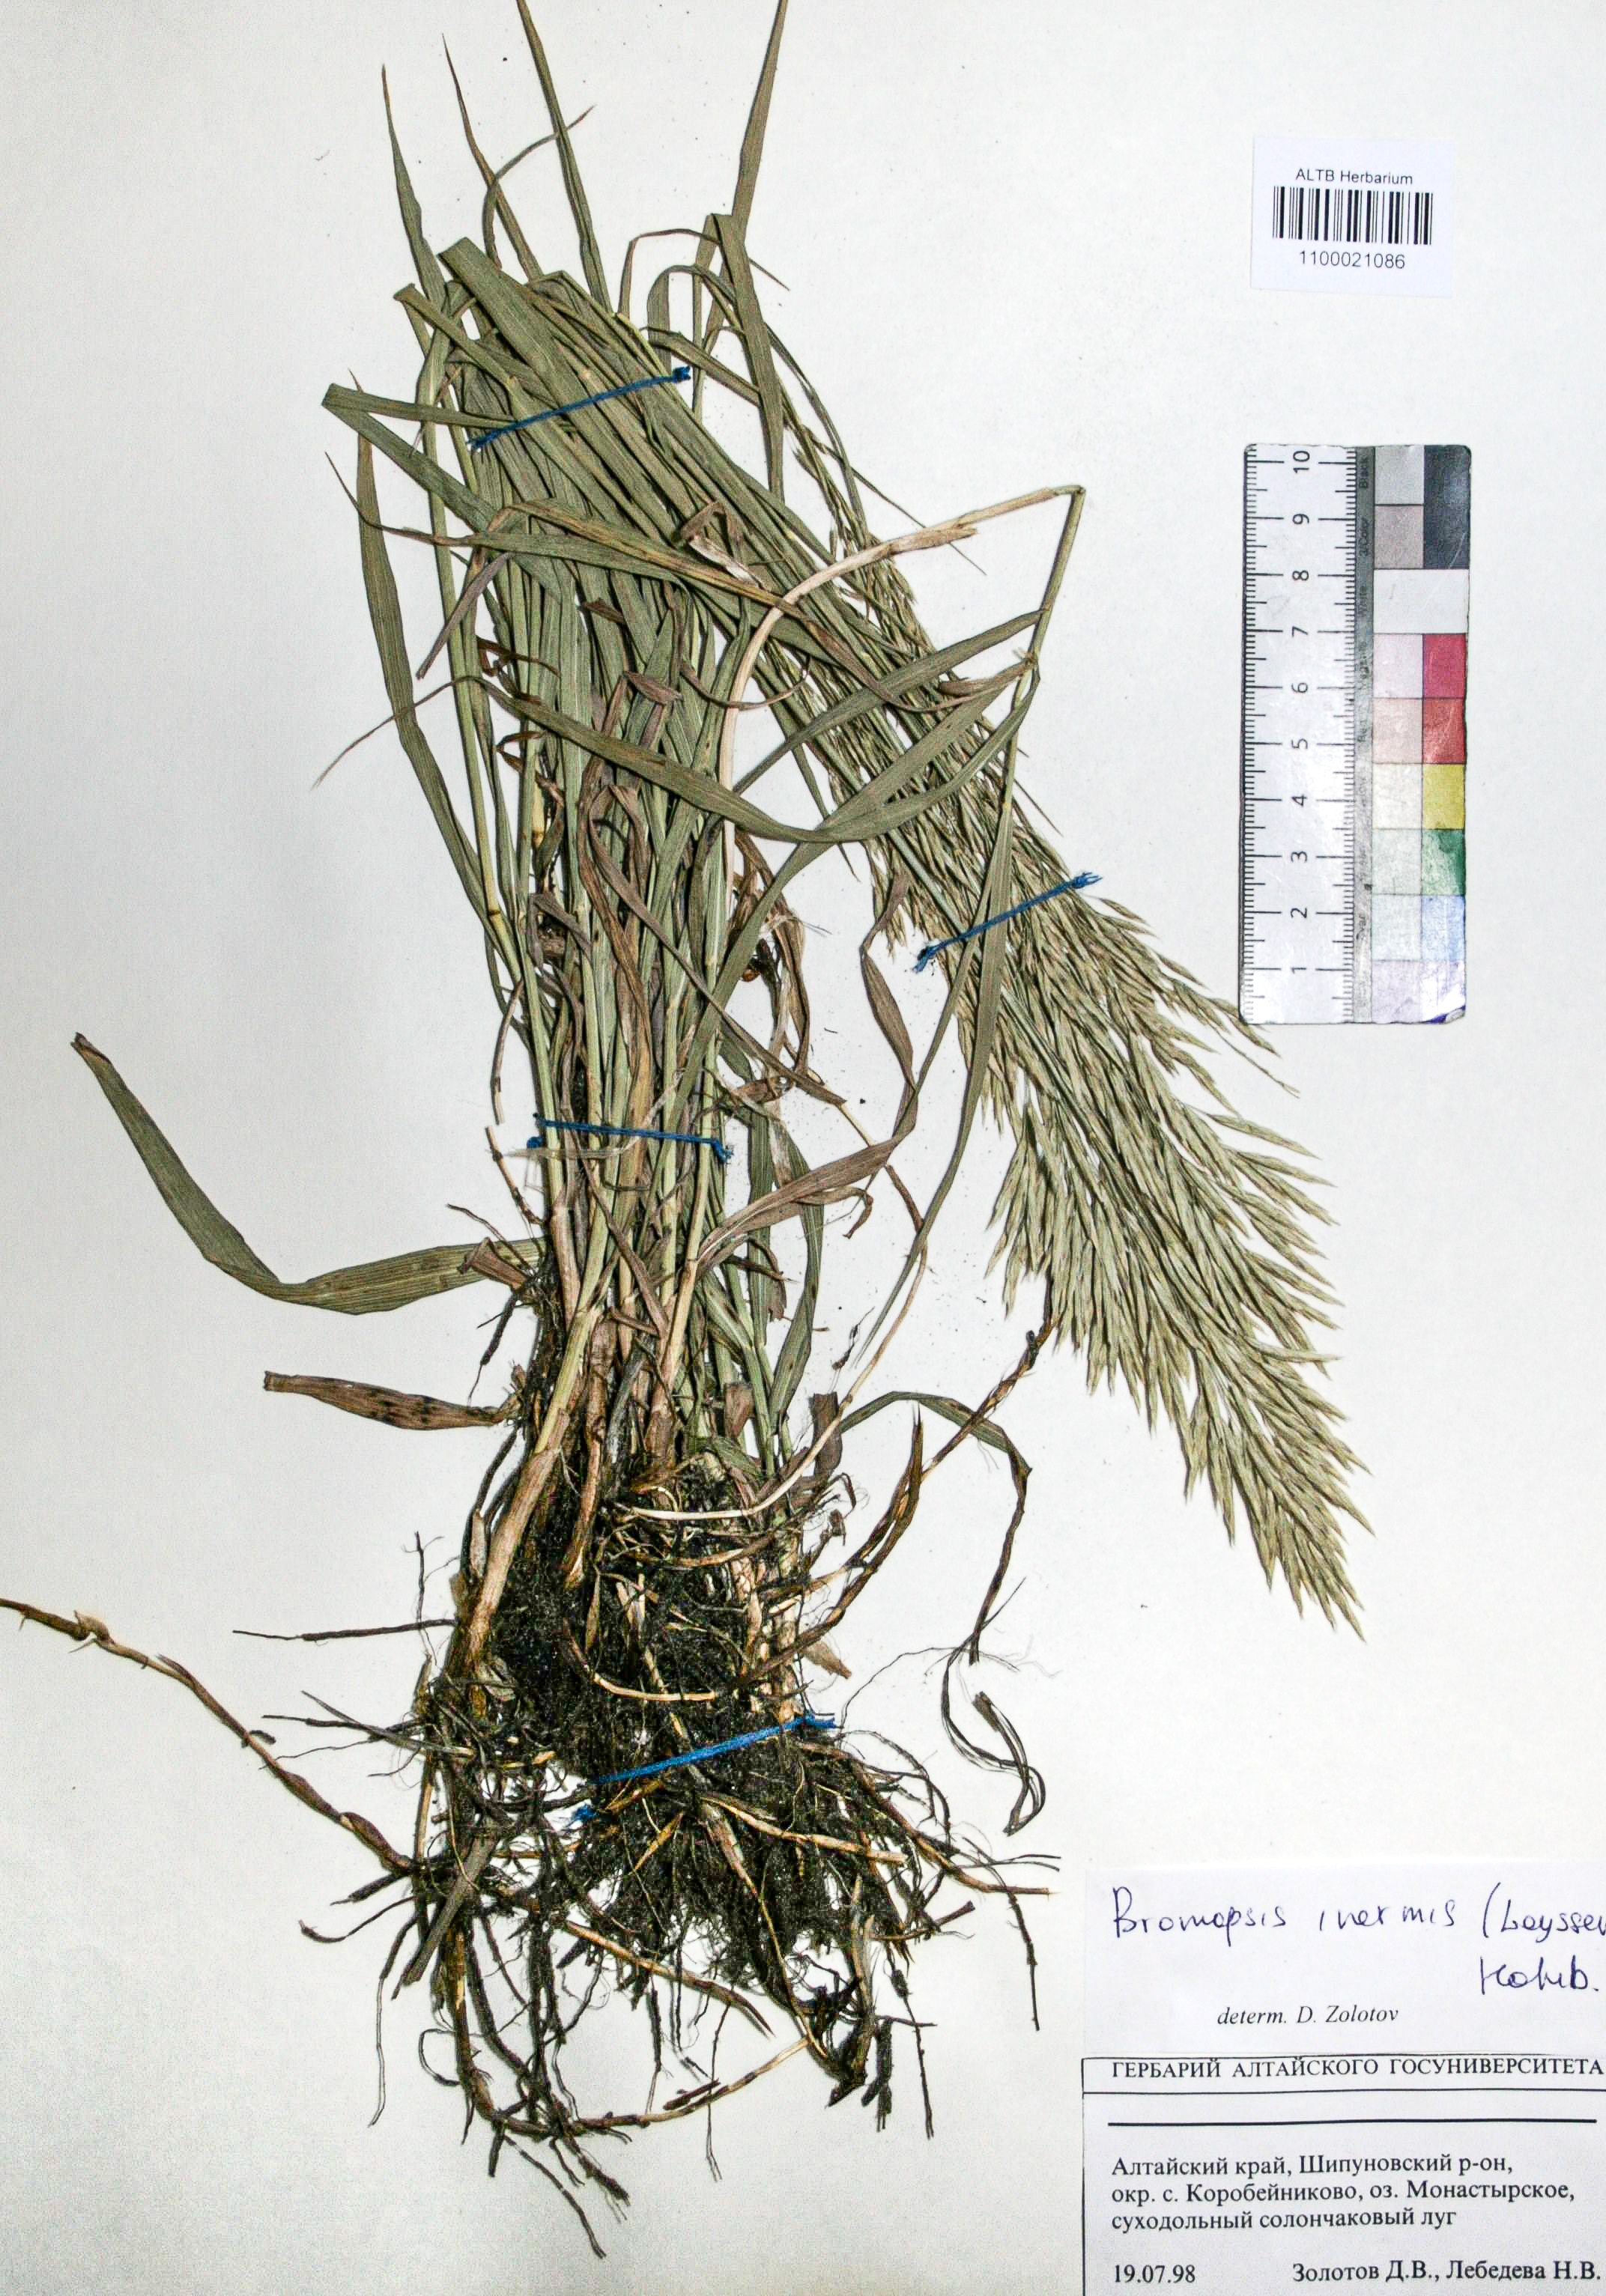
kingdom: Plantae
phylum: Tracheophyta
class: Liliopsida
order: Poales
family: Poaceae
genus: Bromus
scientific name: Bromus inermis
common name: Smooth brome
